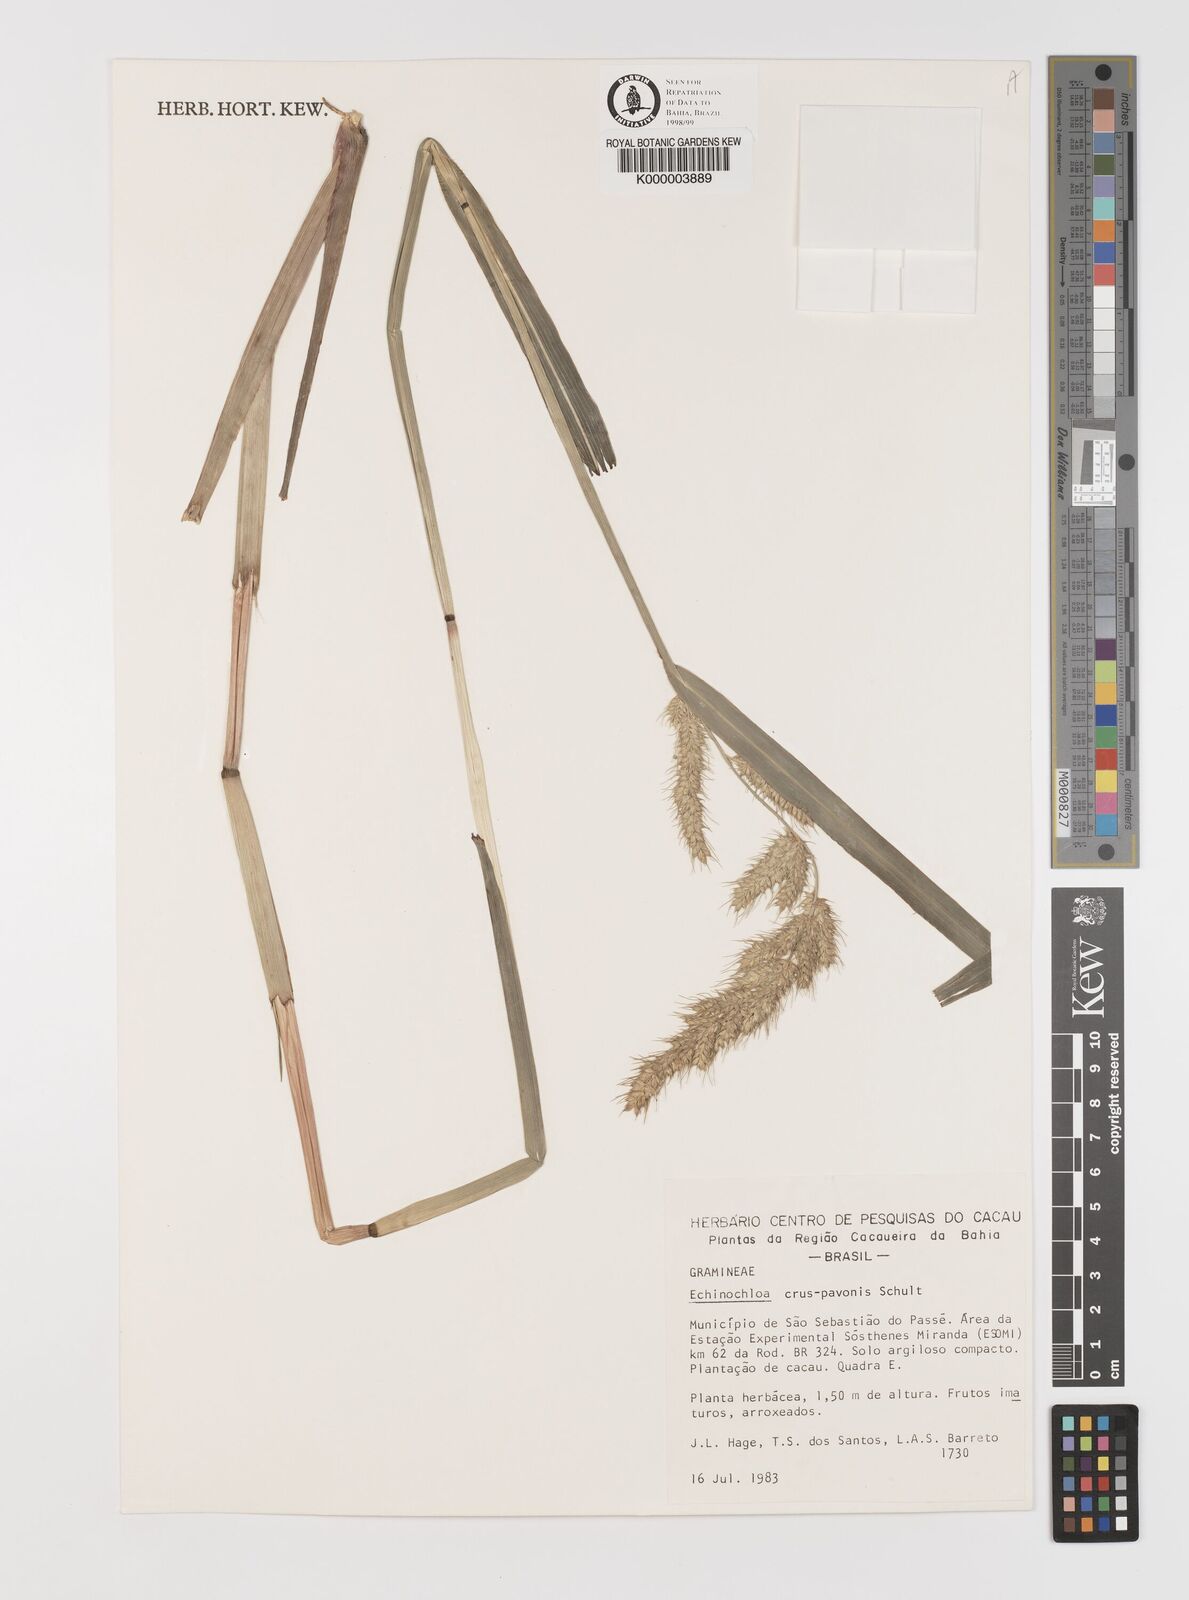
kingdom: Plantae
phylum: Tracheophyta
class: Liliopsida
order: Poales
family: Poaceae
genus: Echinochloa
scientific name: Echinochloa crus-pavonis
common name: Gulf cockspur grass
